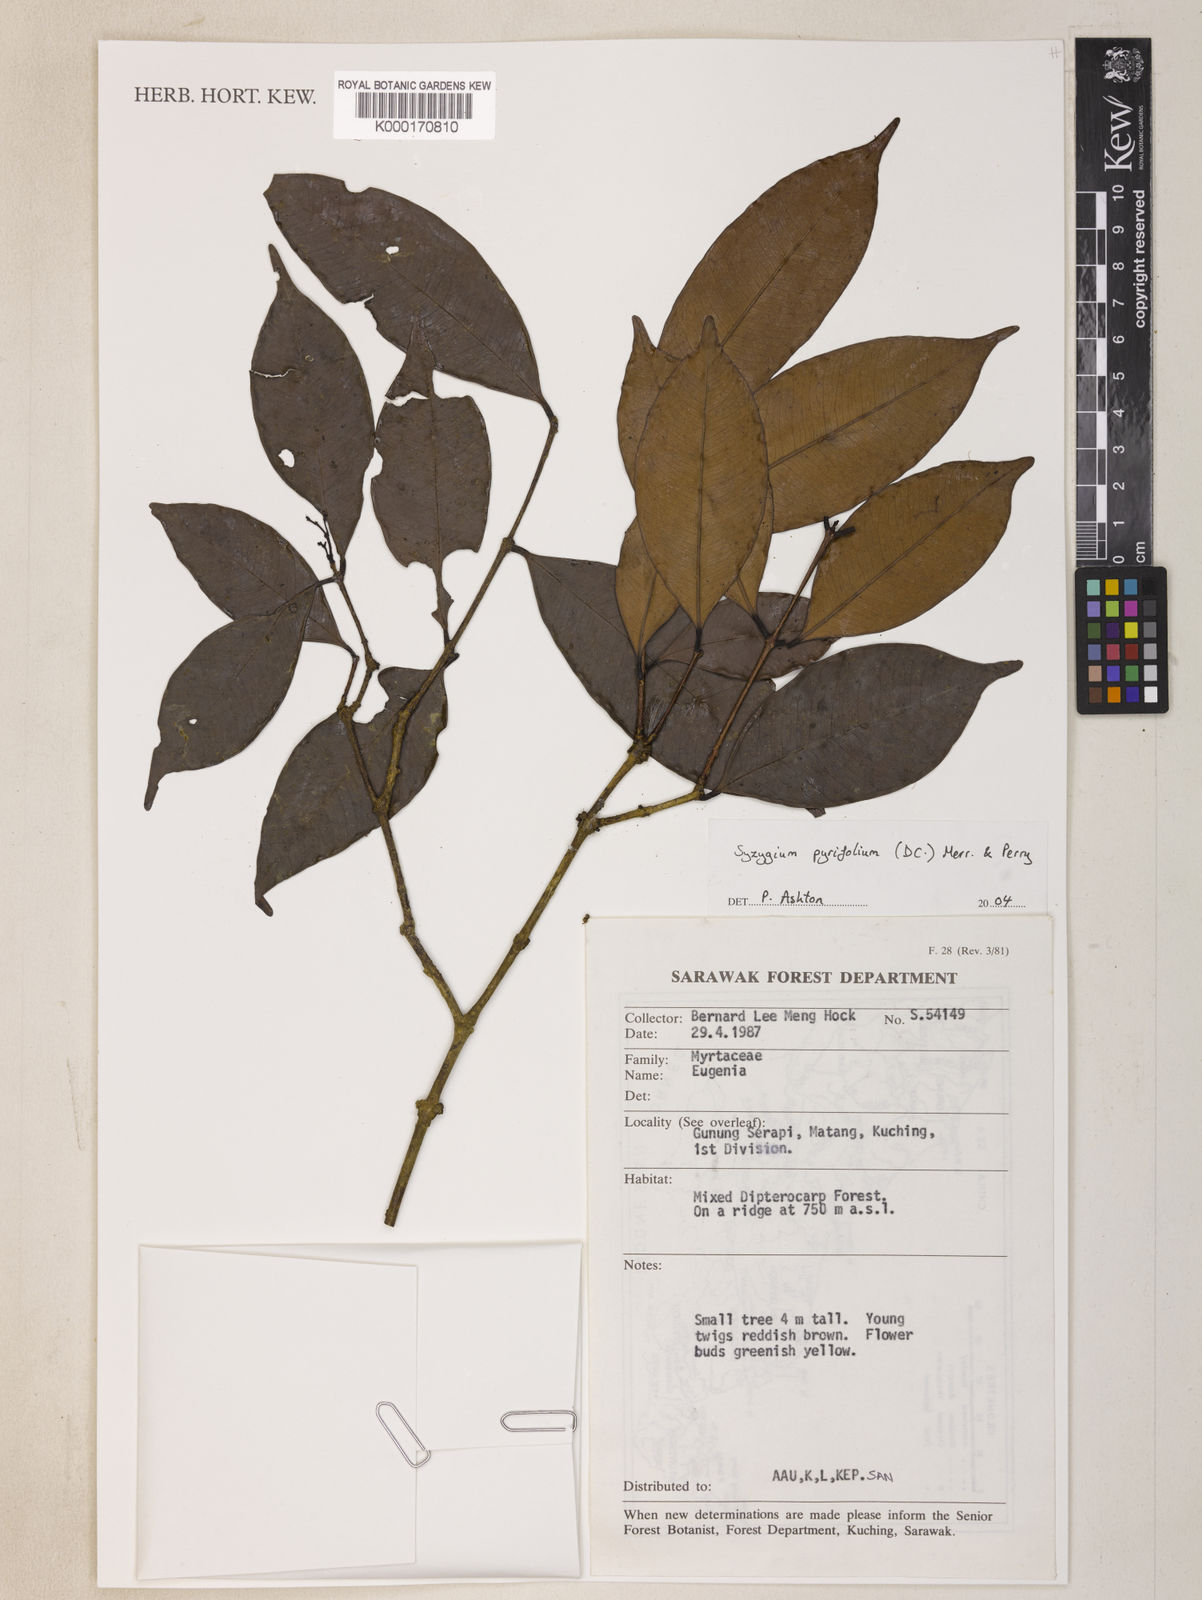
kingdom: Plantae
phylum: Tracheophyta
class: Magnoliopsida
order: Myrtales
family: Myrtaceae
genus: Syzygium
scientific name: Syzygium
